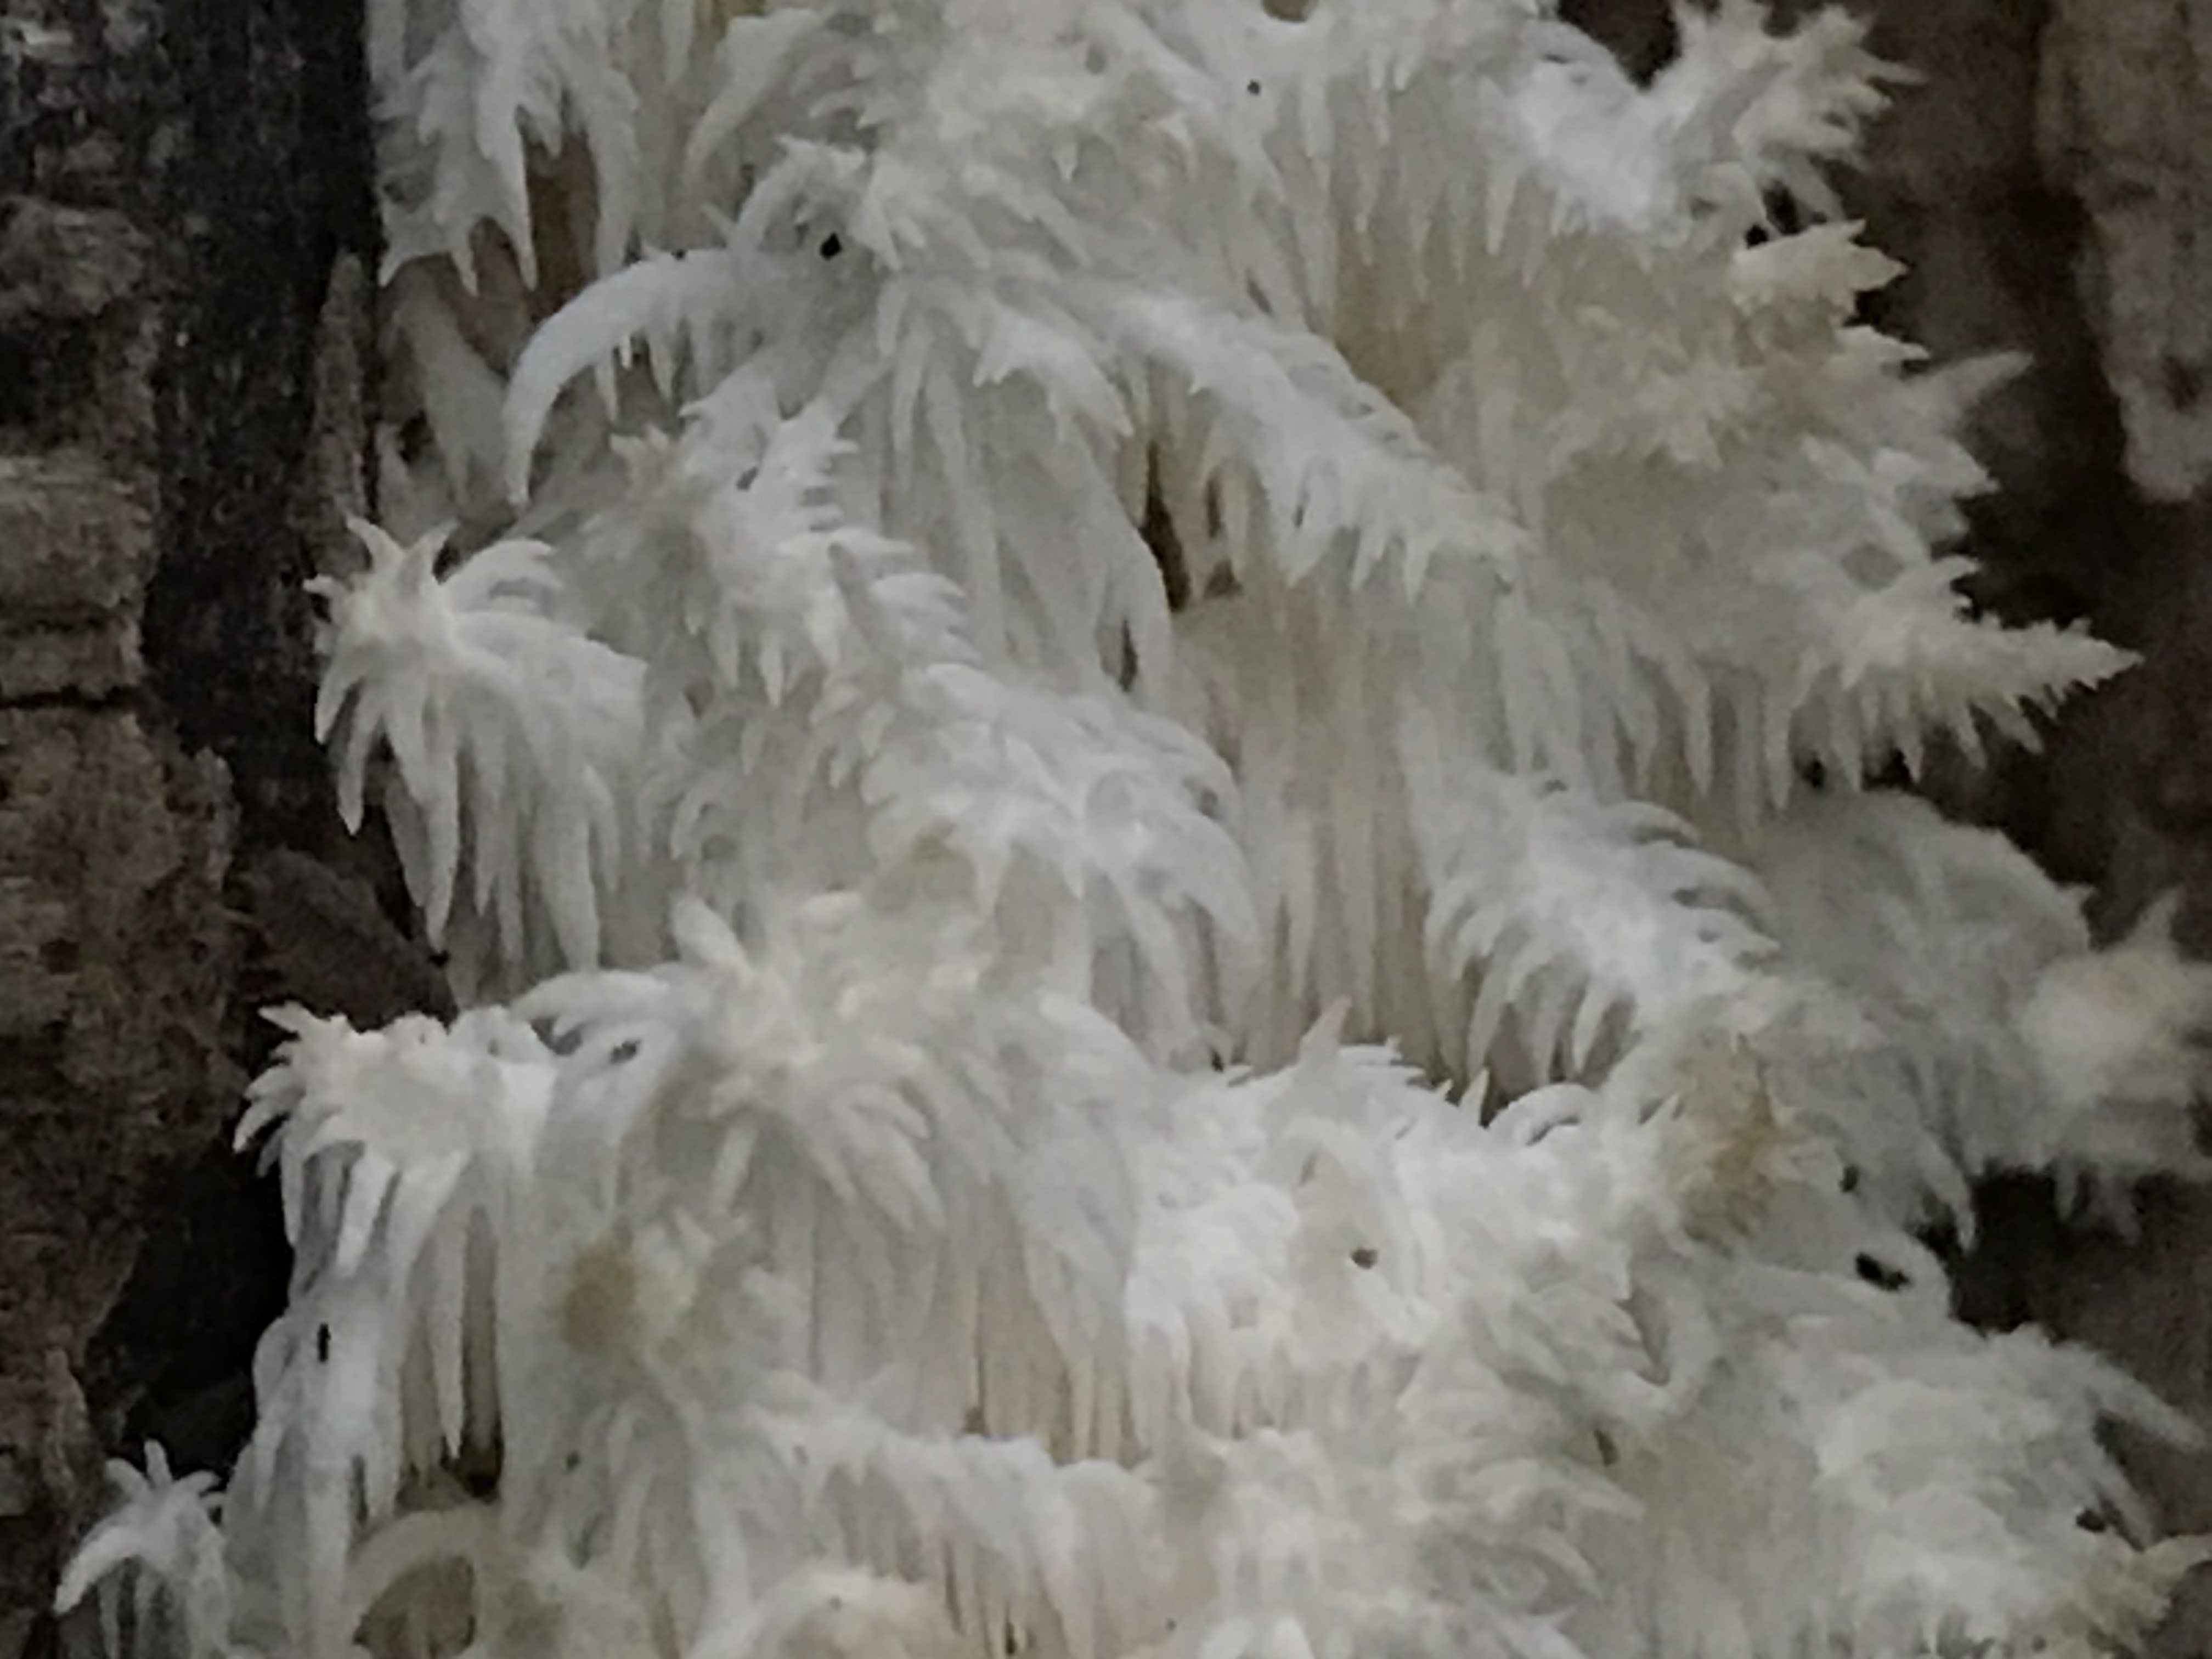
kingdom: Fungi
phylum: Basidiomycota
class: Agaricomycetes
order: Russulales
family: Hericiaceae
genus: Hericium
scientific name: Hericium coralloides
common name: koralpigsvamp
